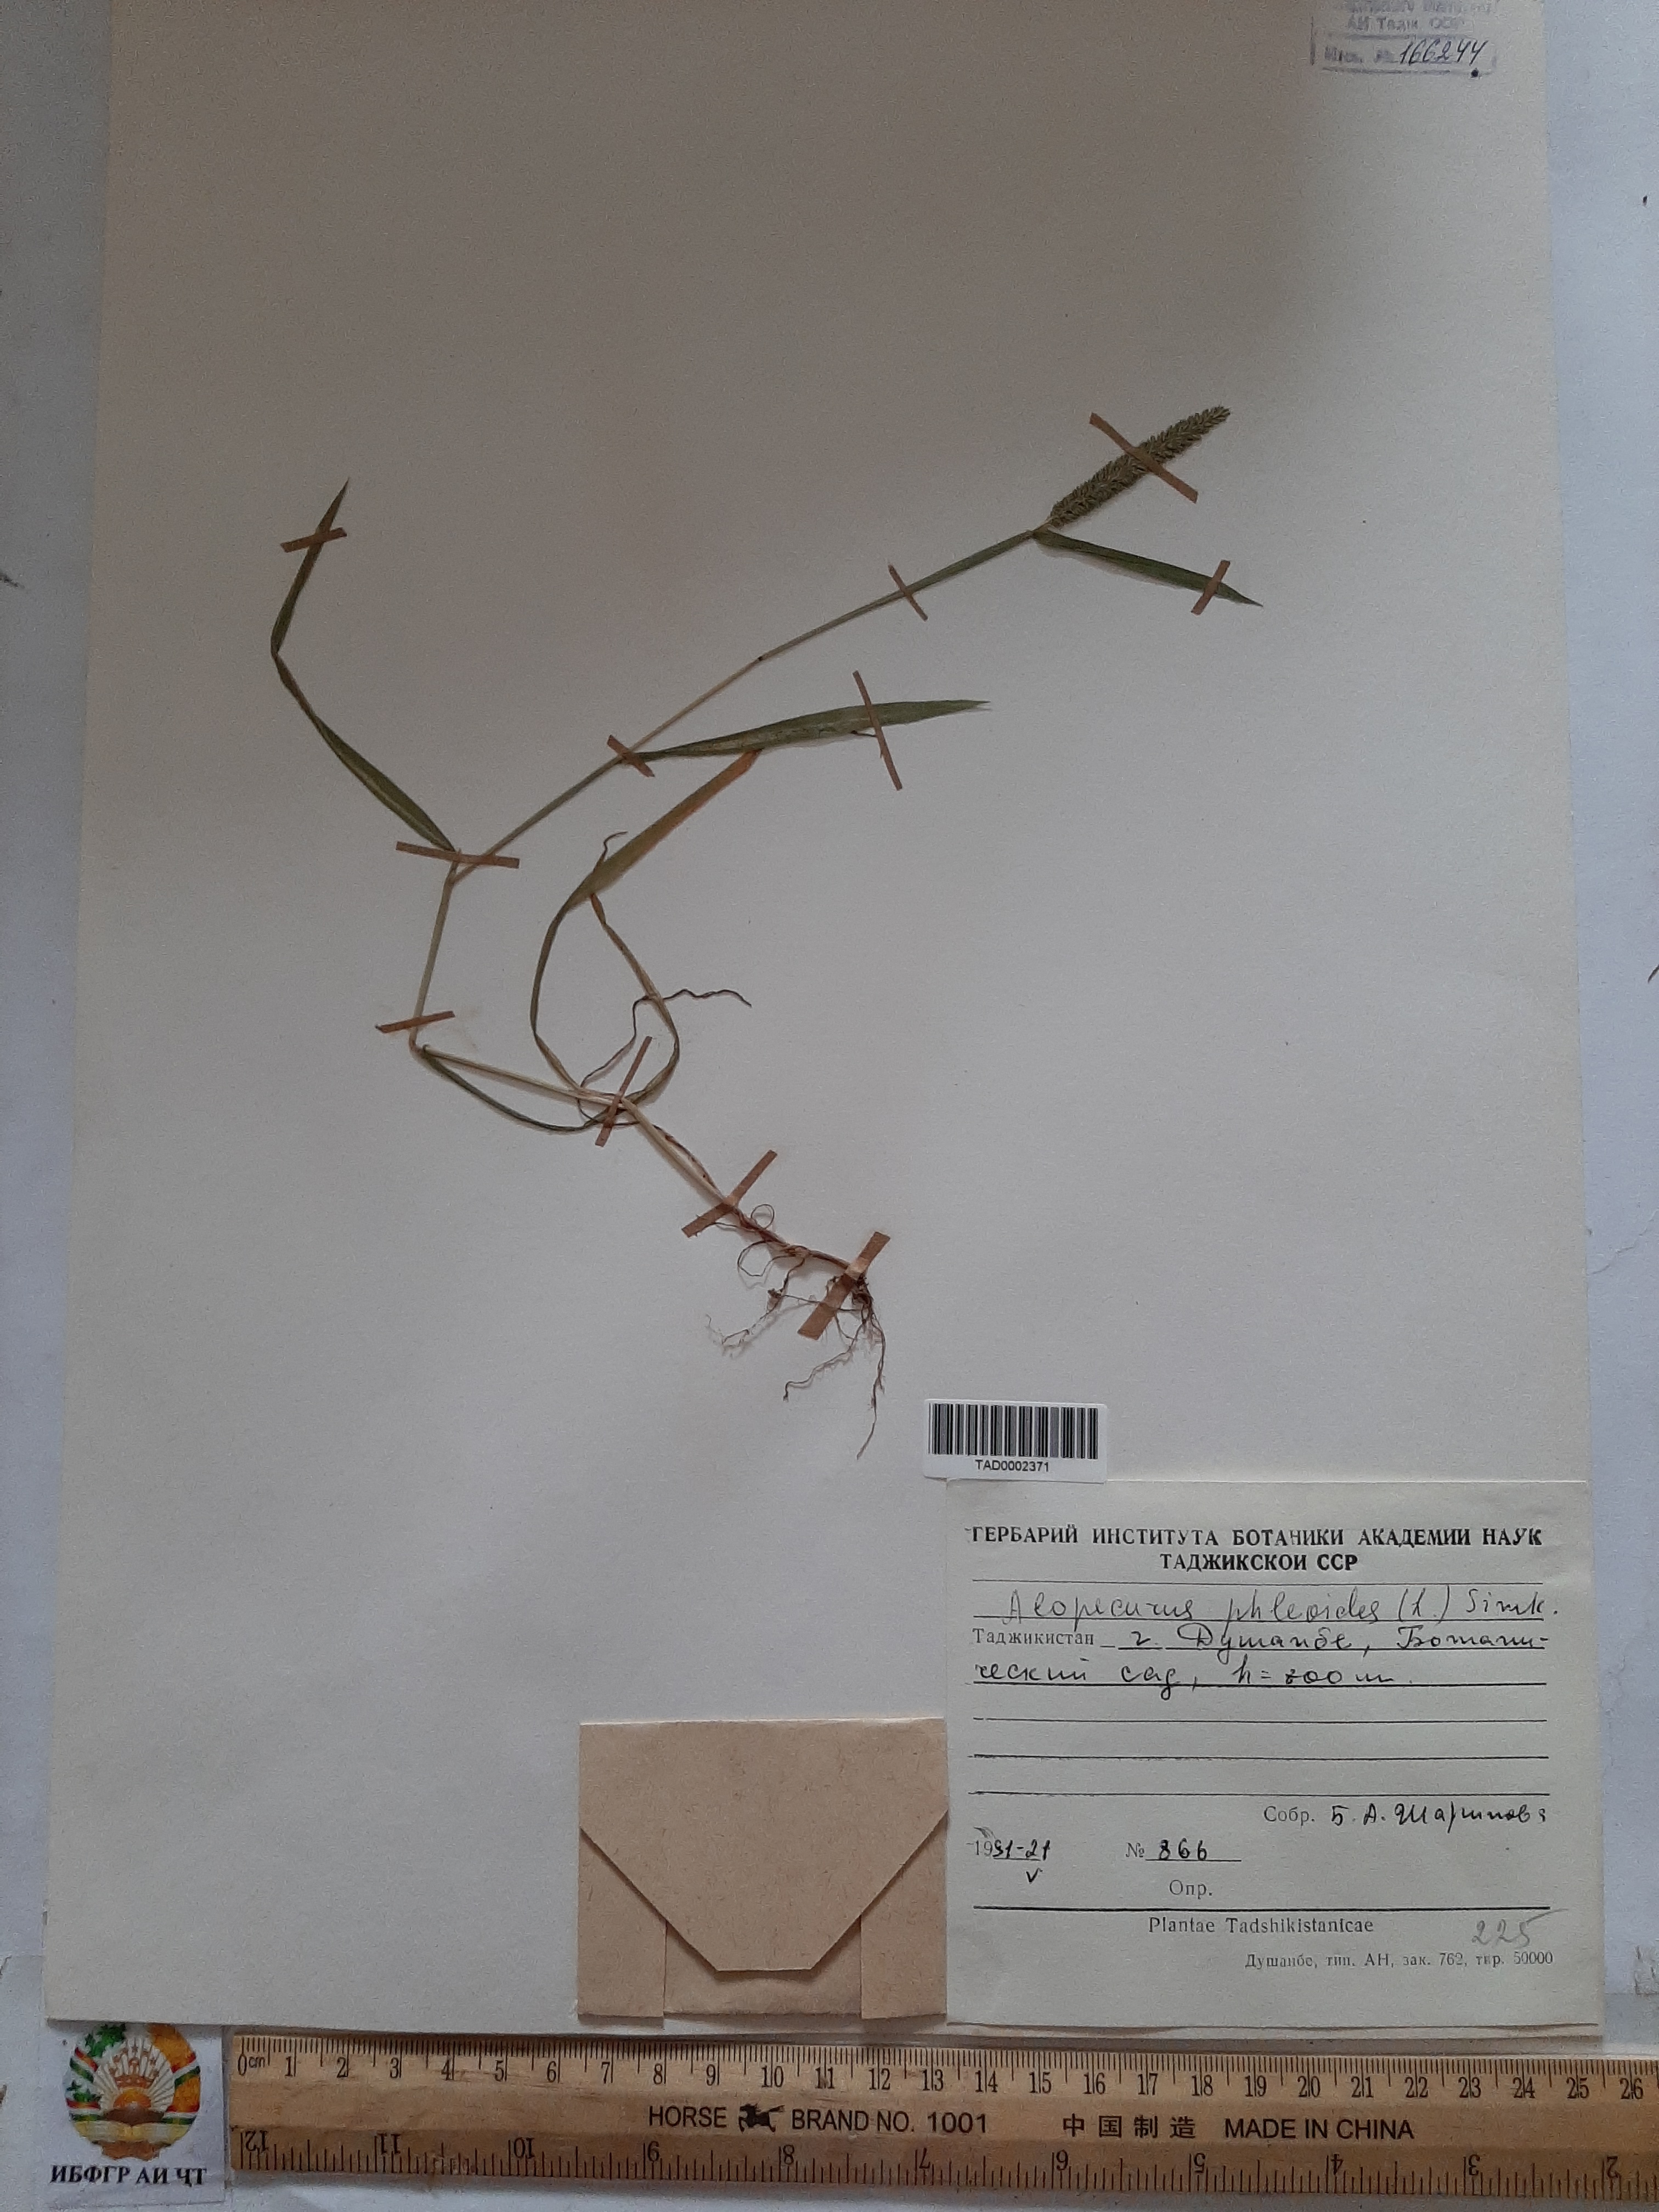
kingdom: Plantae
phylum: Tracheophyta
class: Liliopsida
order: Poales
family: Poaceae
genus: Phleum
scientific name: Phleum phleoides
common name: Purple-stem cat's-tail
